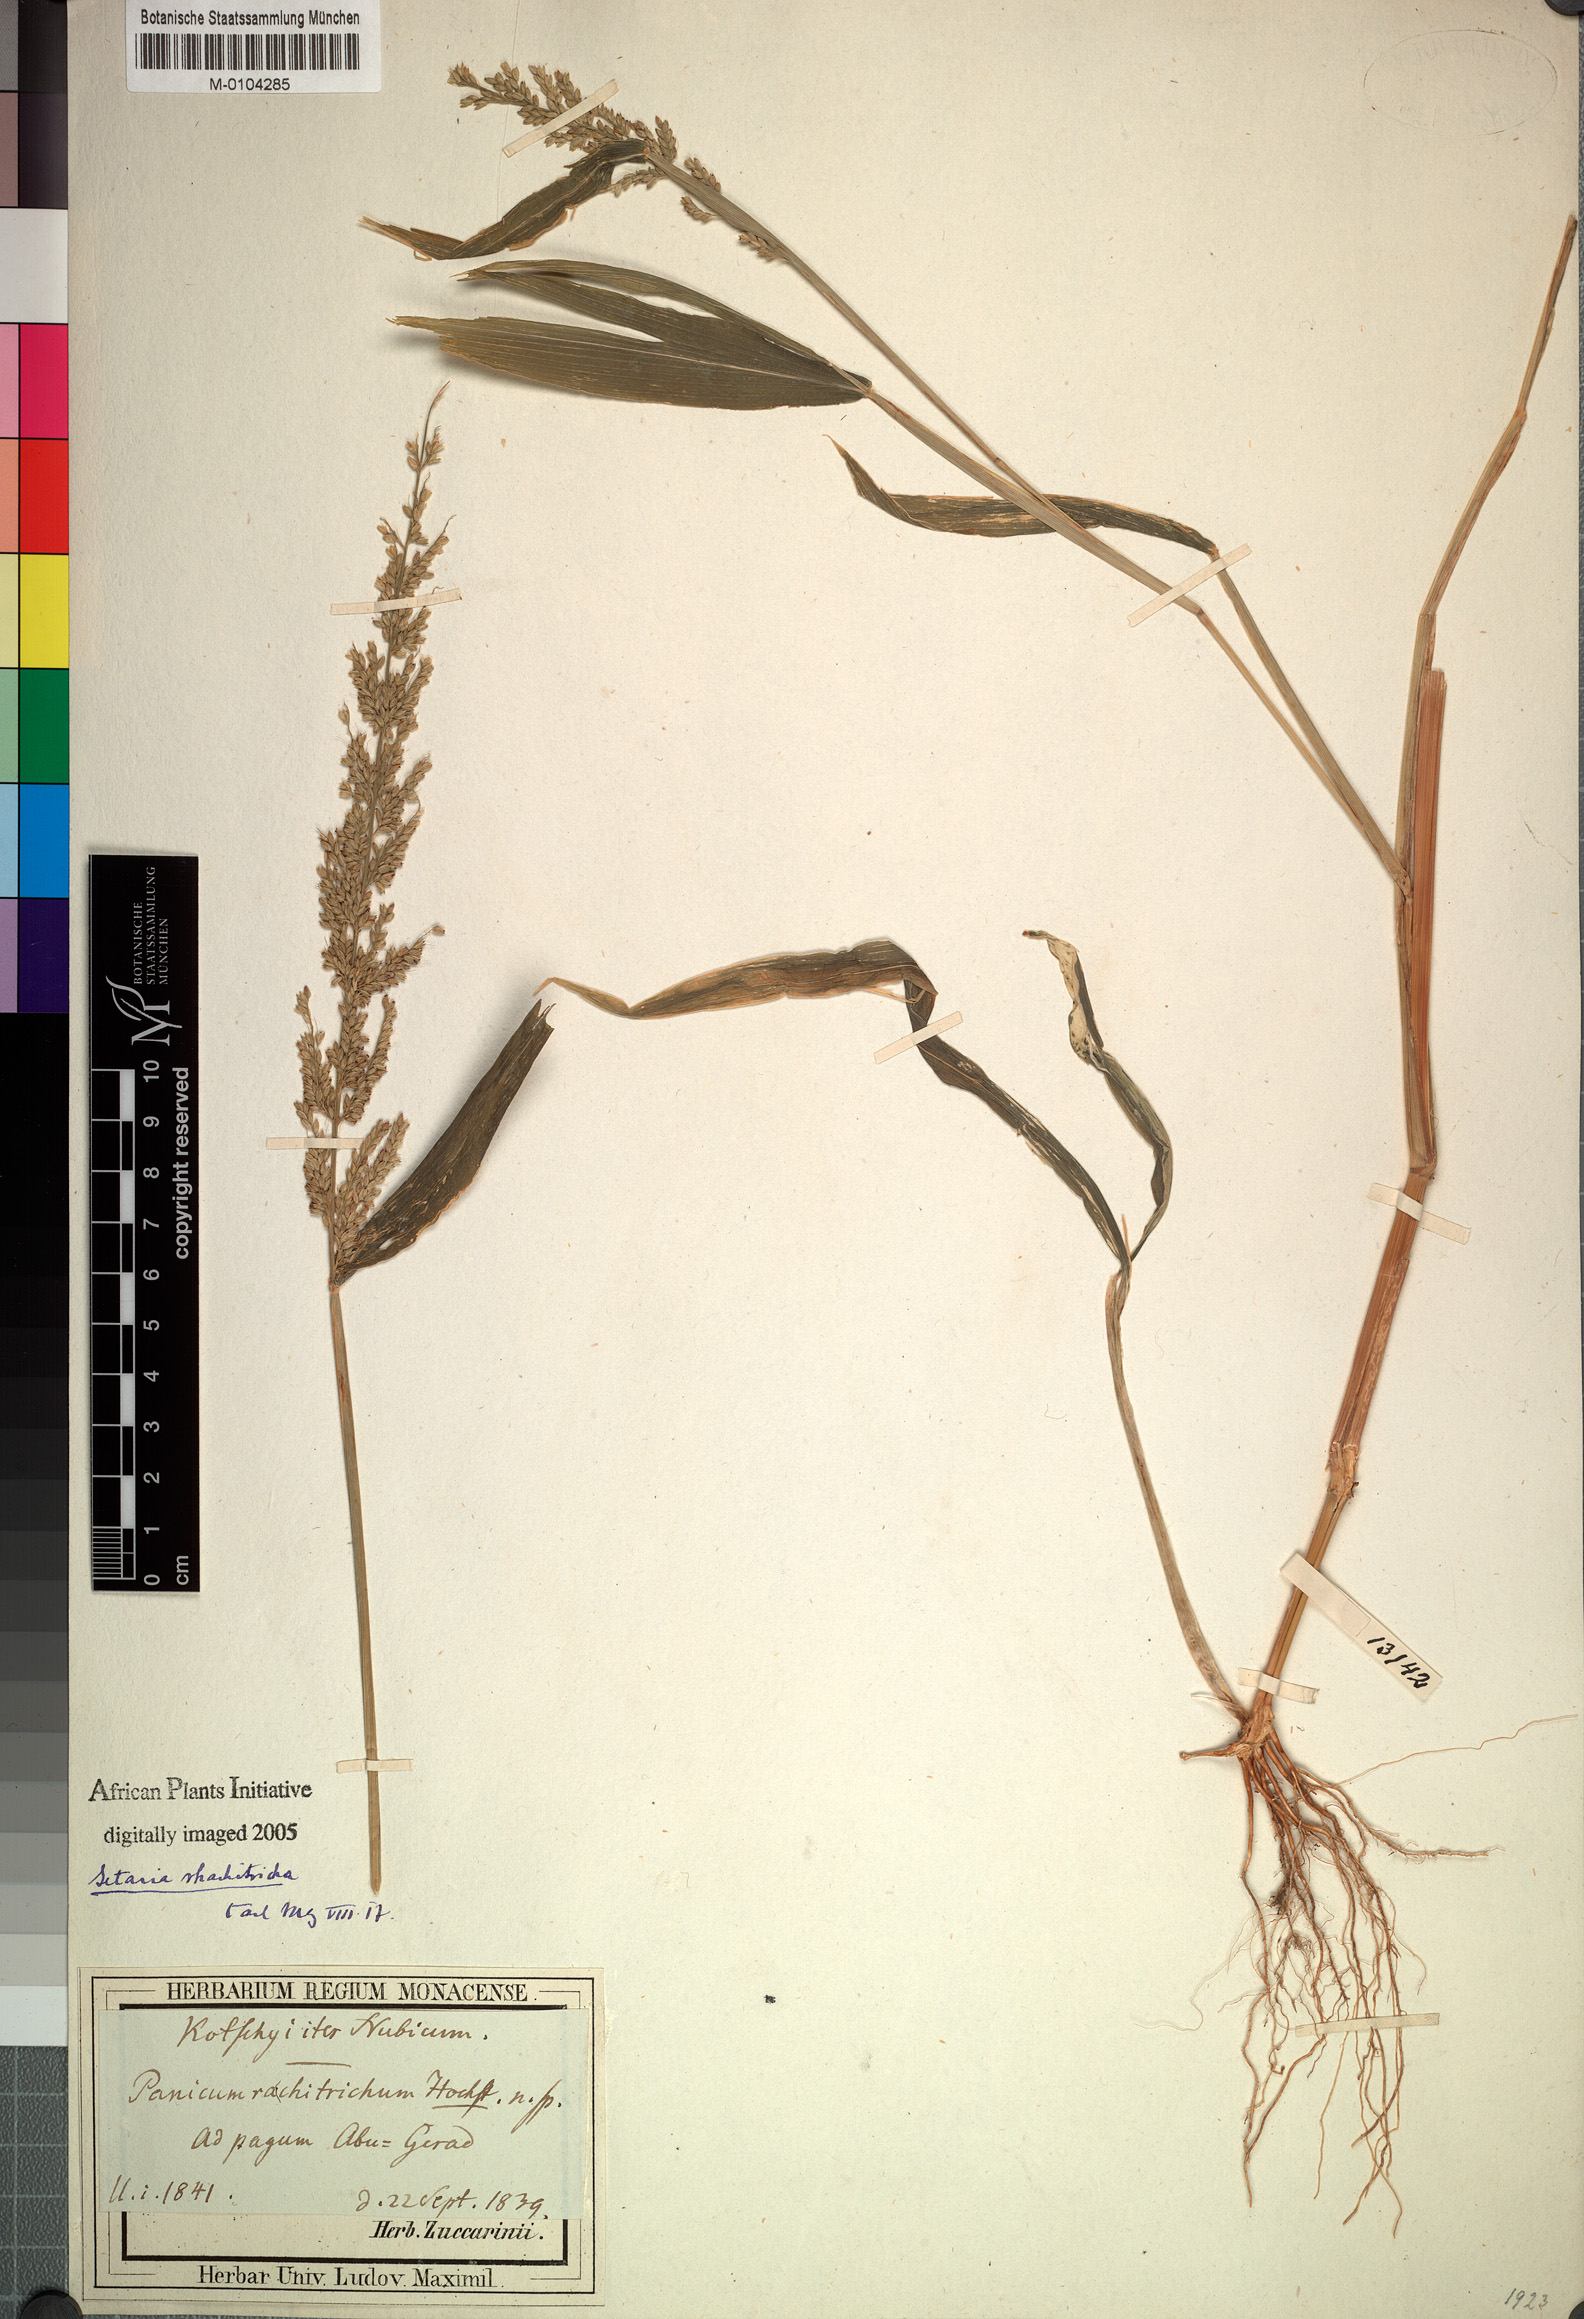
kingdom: Plantae
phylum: Tracheophyta
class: Liliopsida
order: Poales
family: Poaceae
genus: Setaria
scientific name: Setaria barbata
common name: East indian bristlegrass
